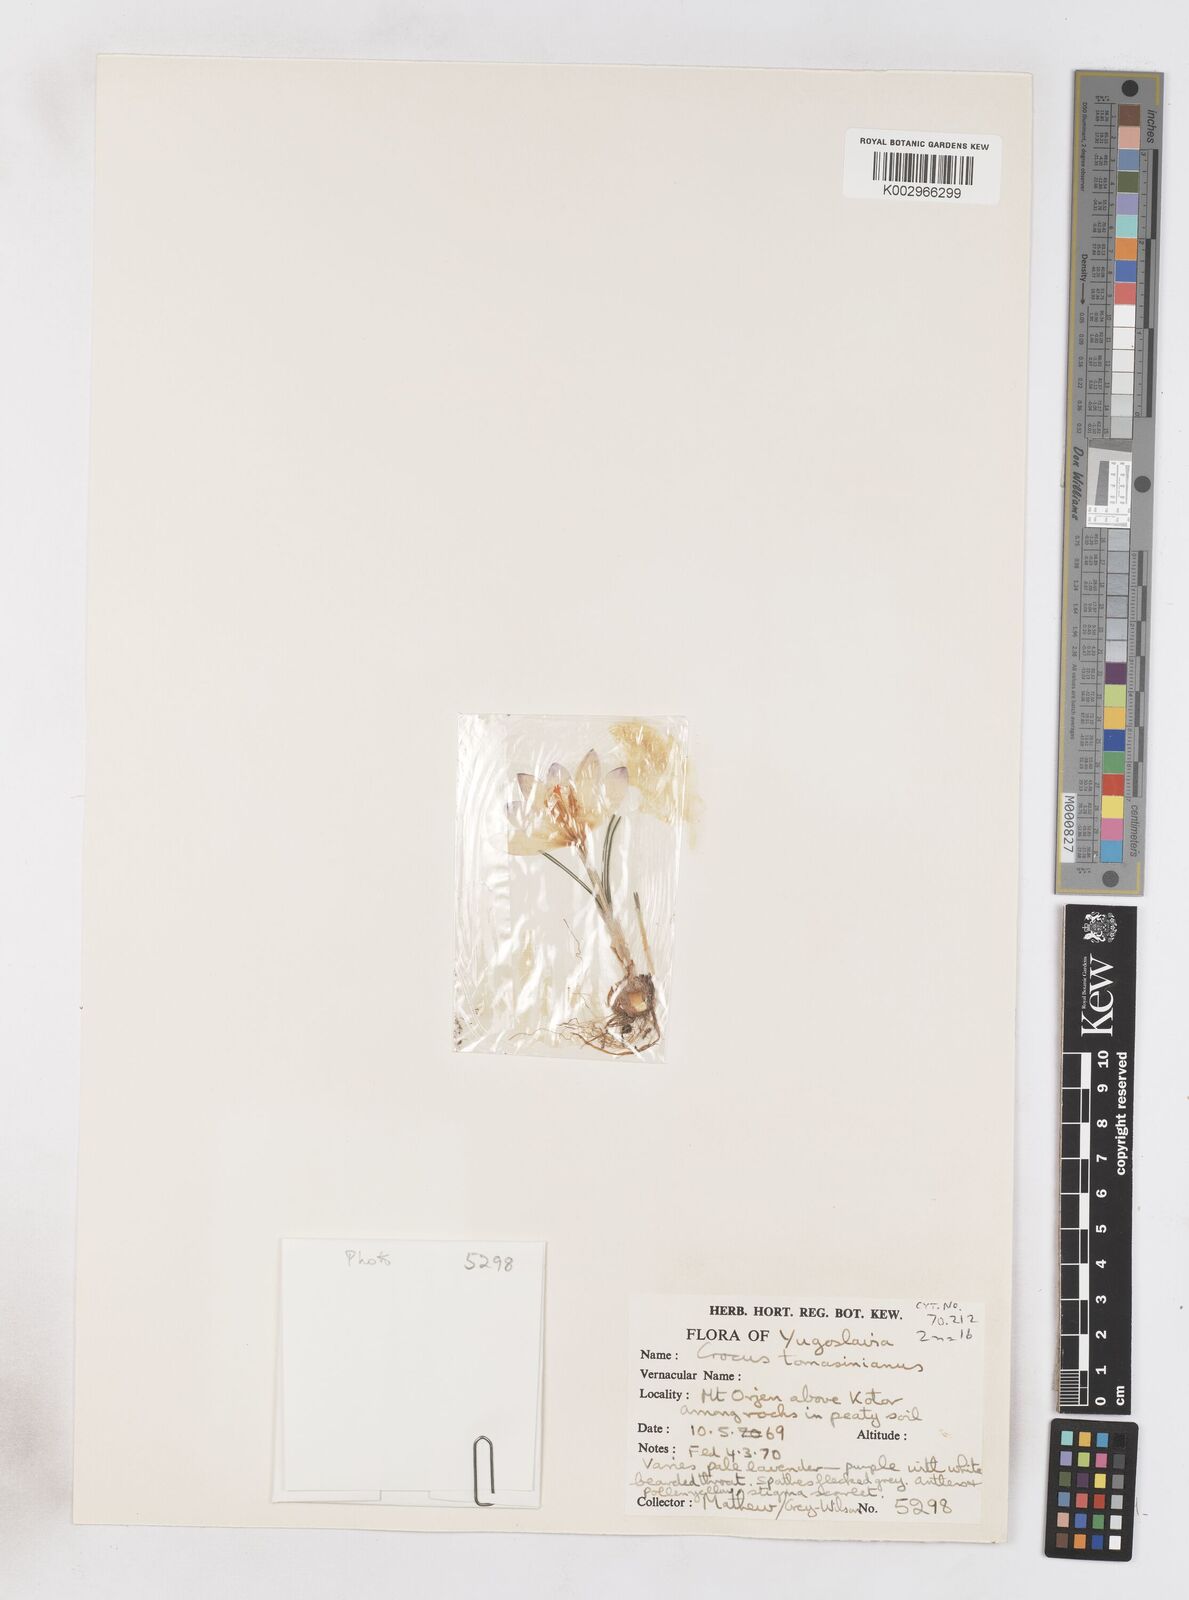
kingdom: Plantae
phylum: Tracheophyta
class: Liliopsida
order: Asparagales
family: Iridaceae
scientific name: Iridaceae
